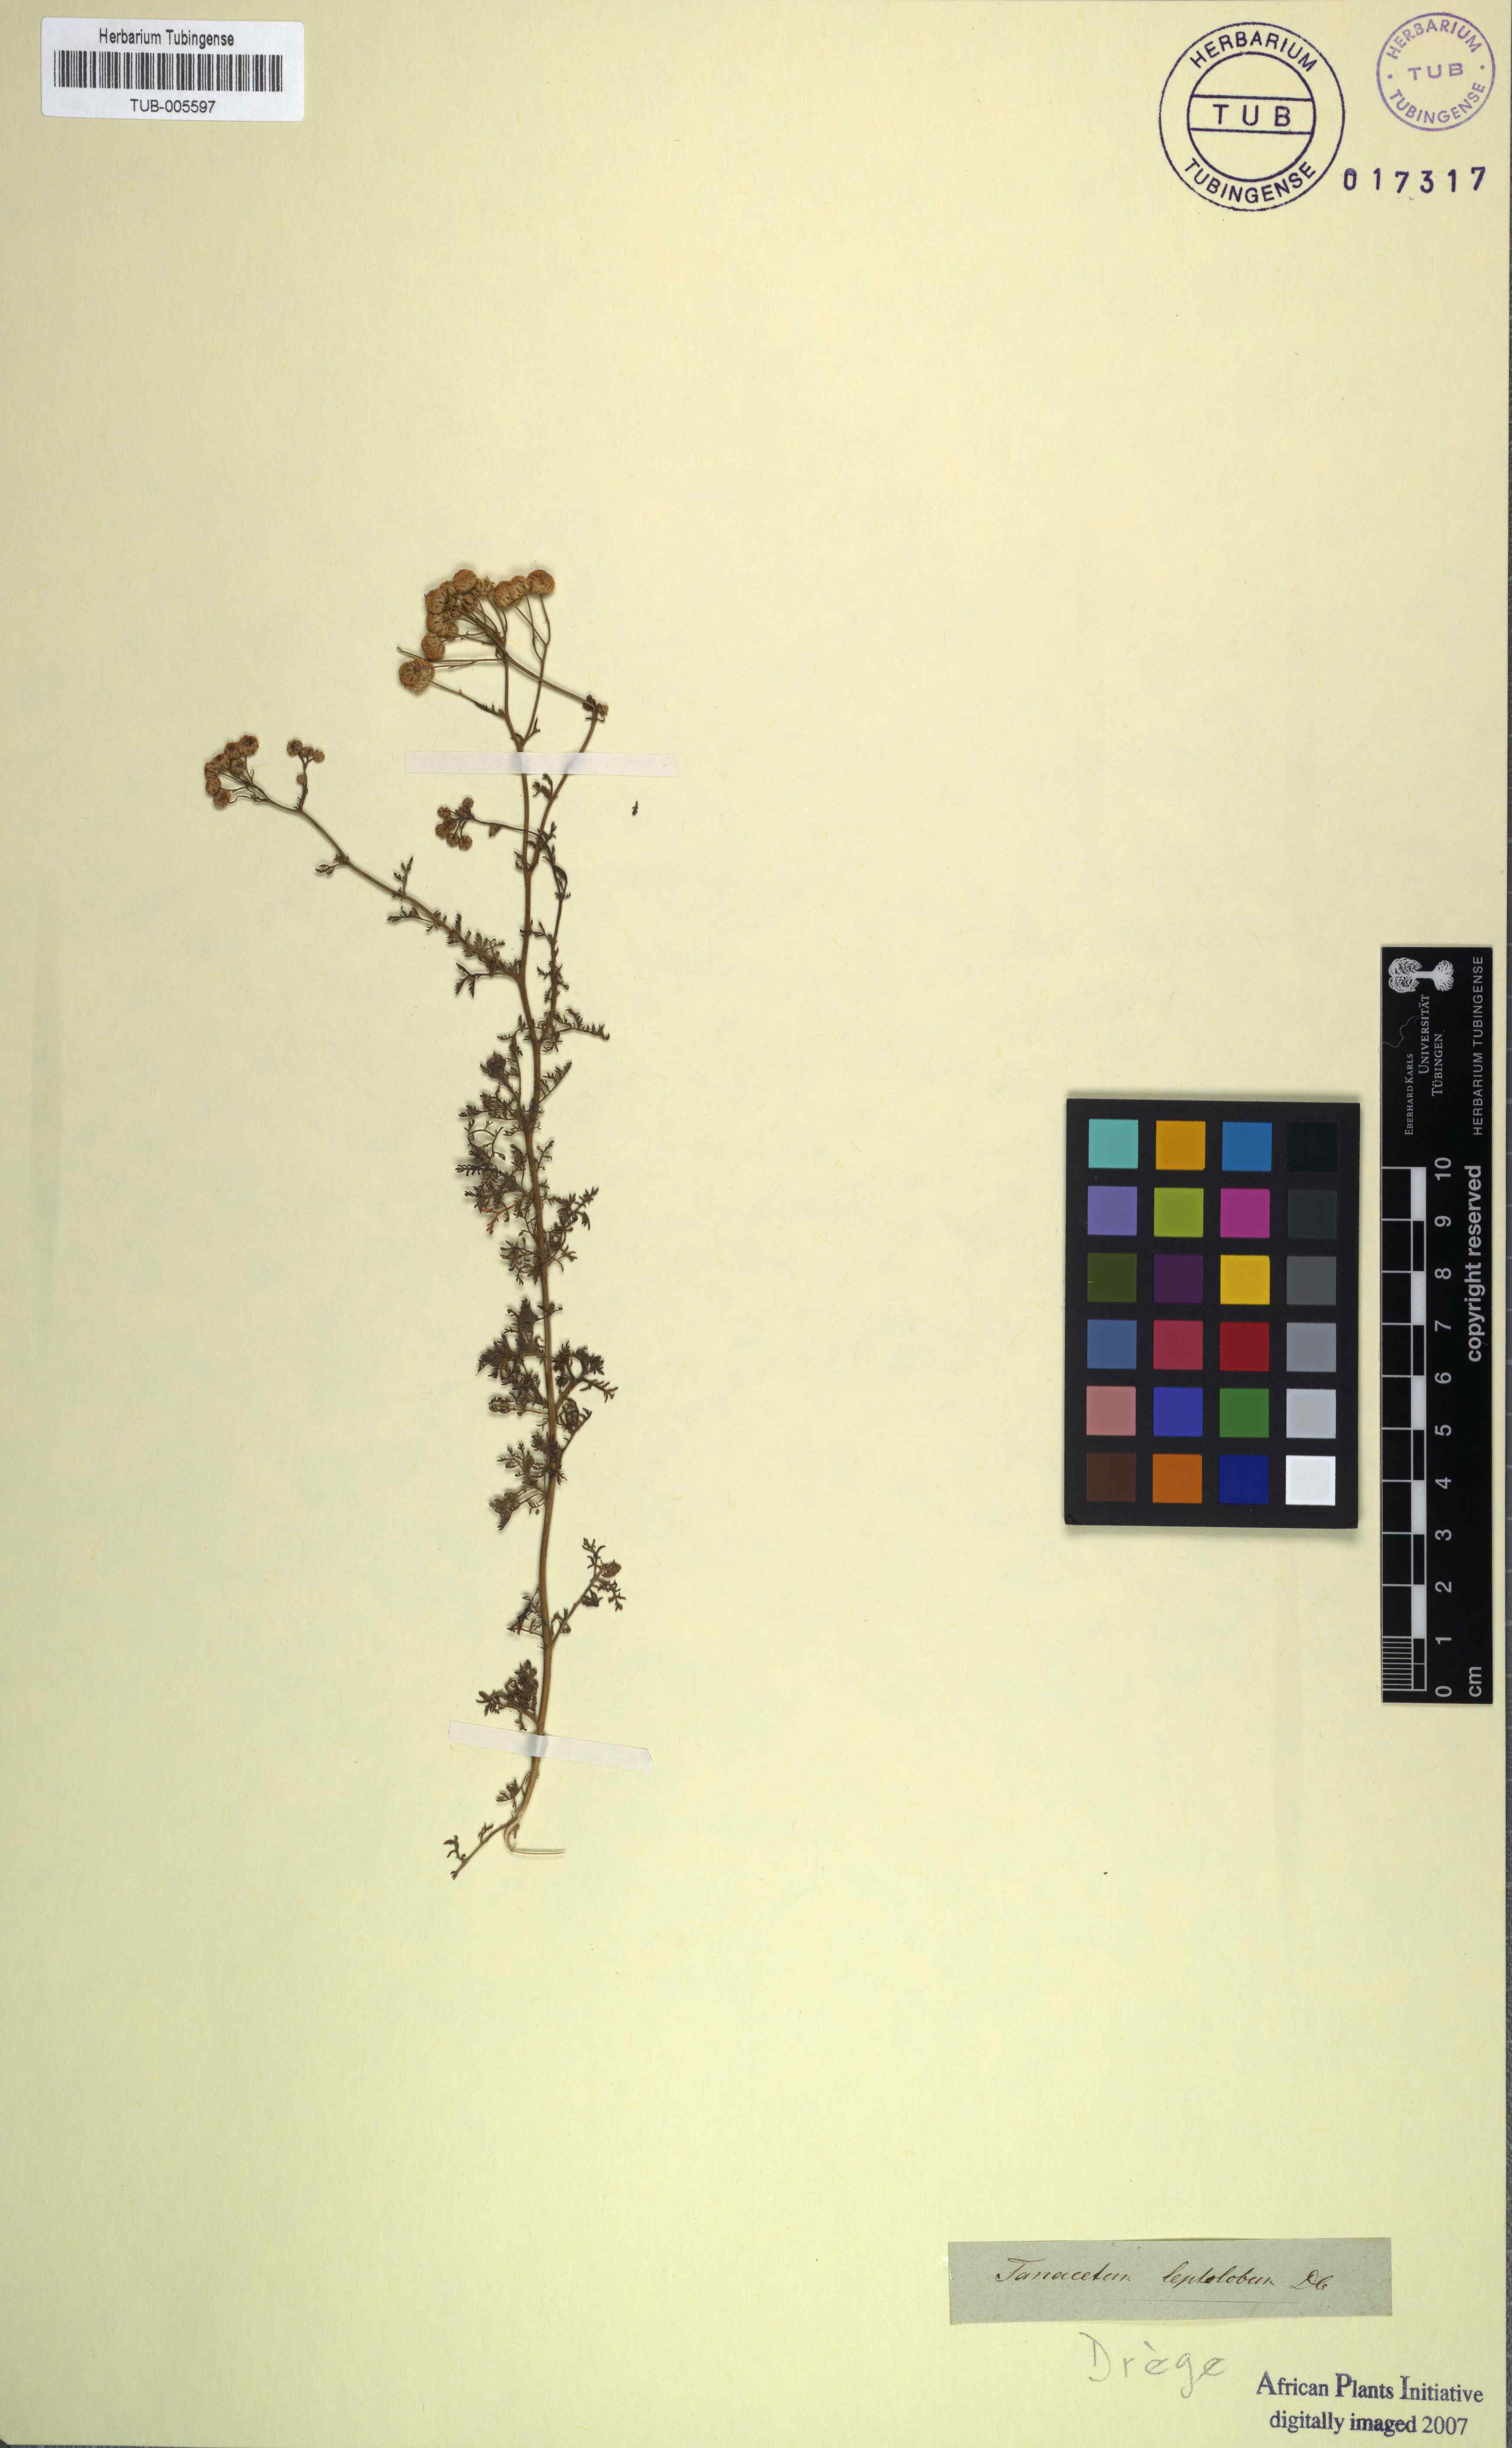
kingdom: Plantae
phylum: Tracheophyta
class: Magnoliopsida
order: Asterales
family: Asteraceae
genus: Oncosiphon
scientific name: Oncosiphon suffruticosus
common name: Shrubby mayweed
